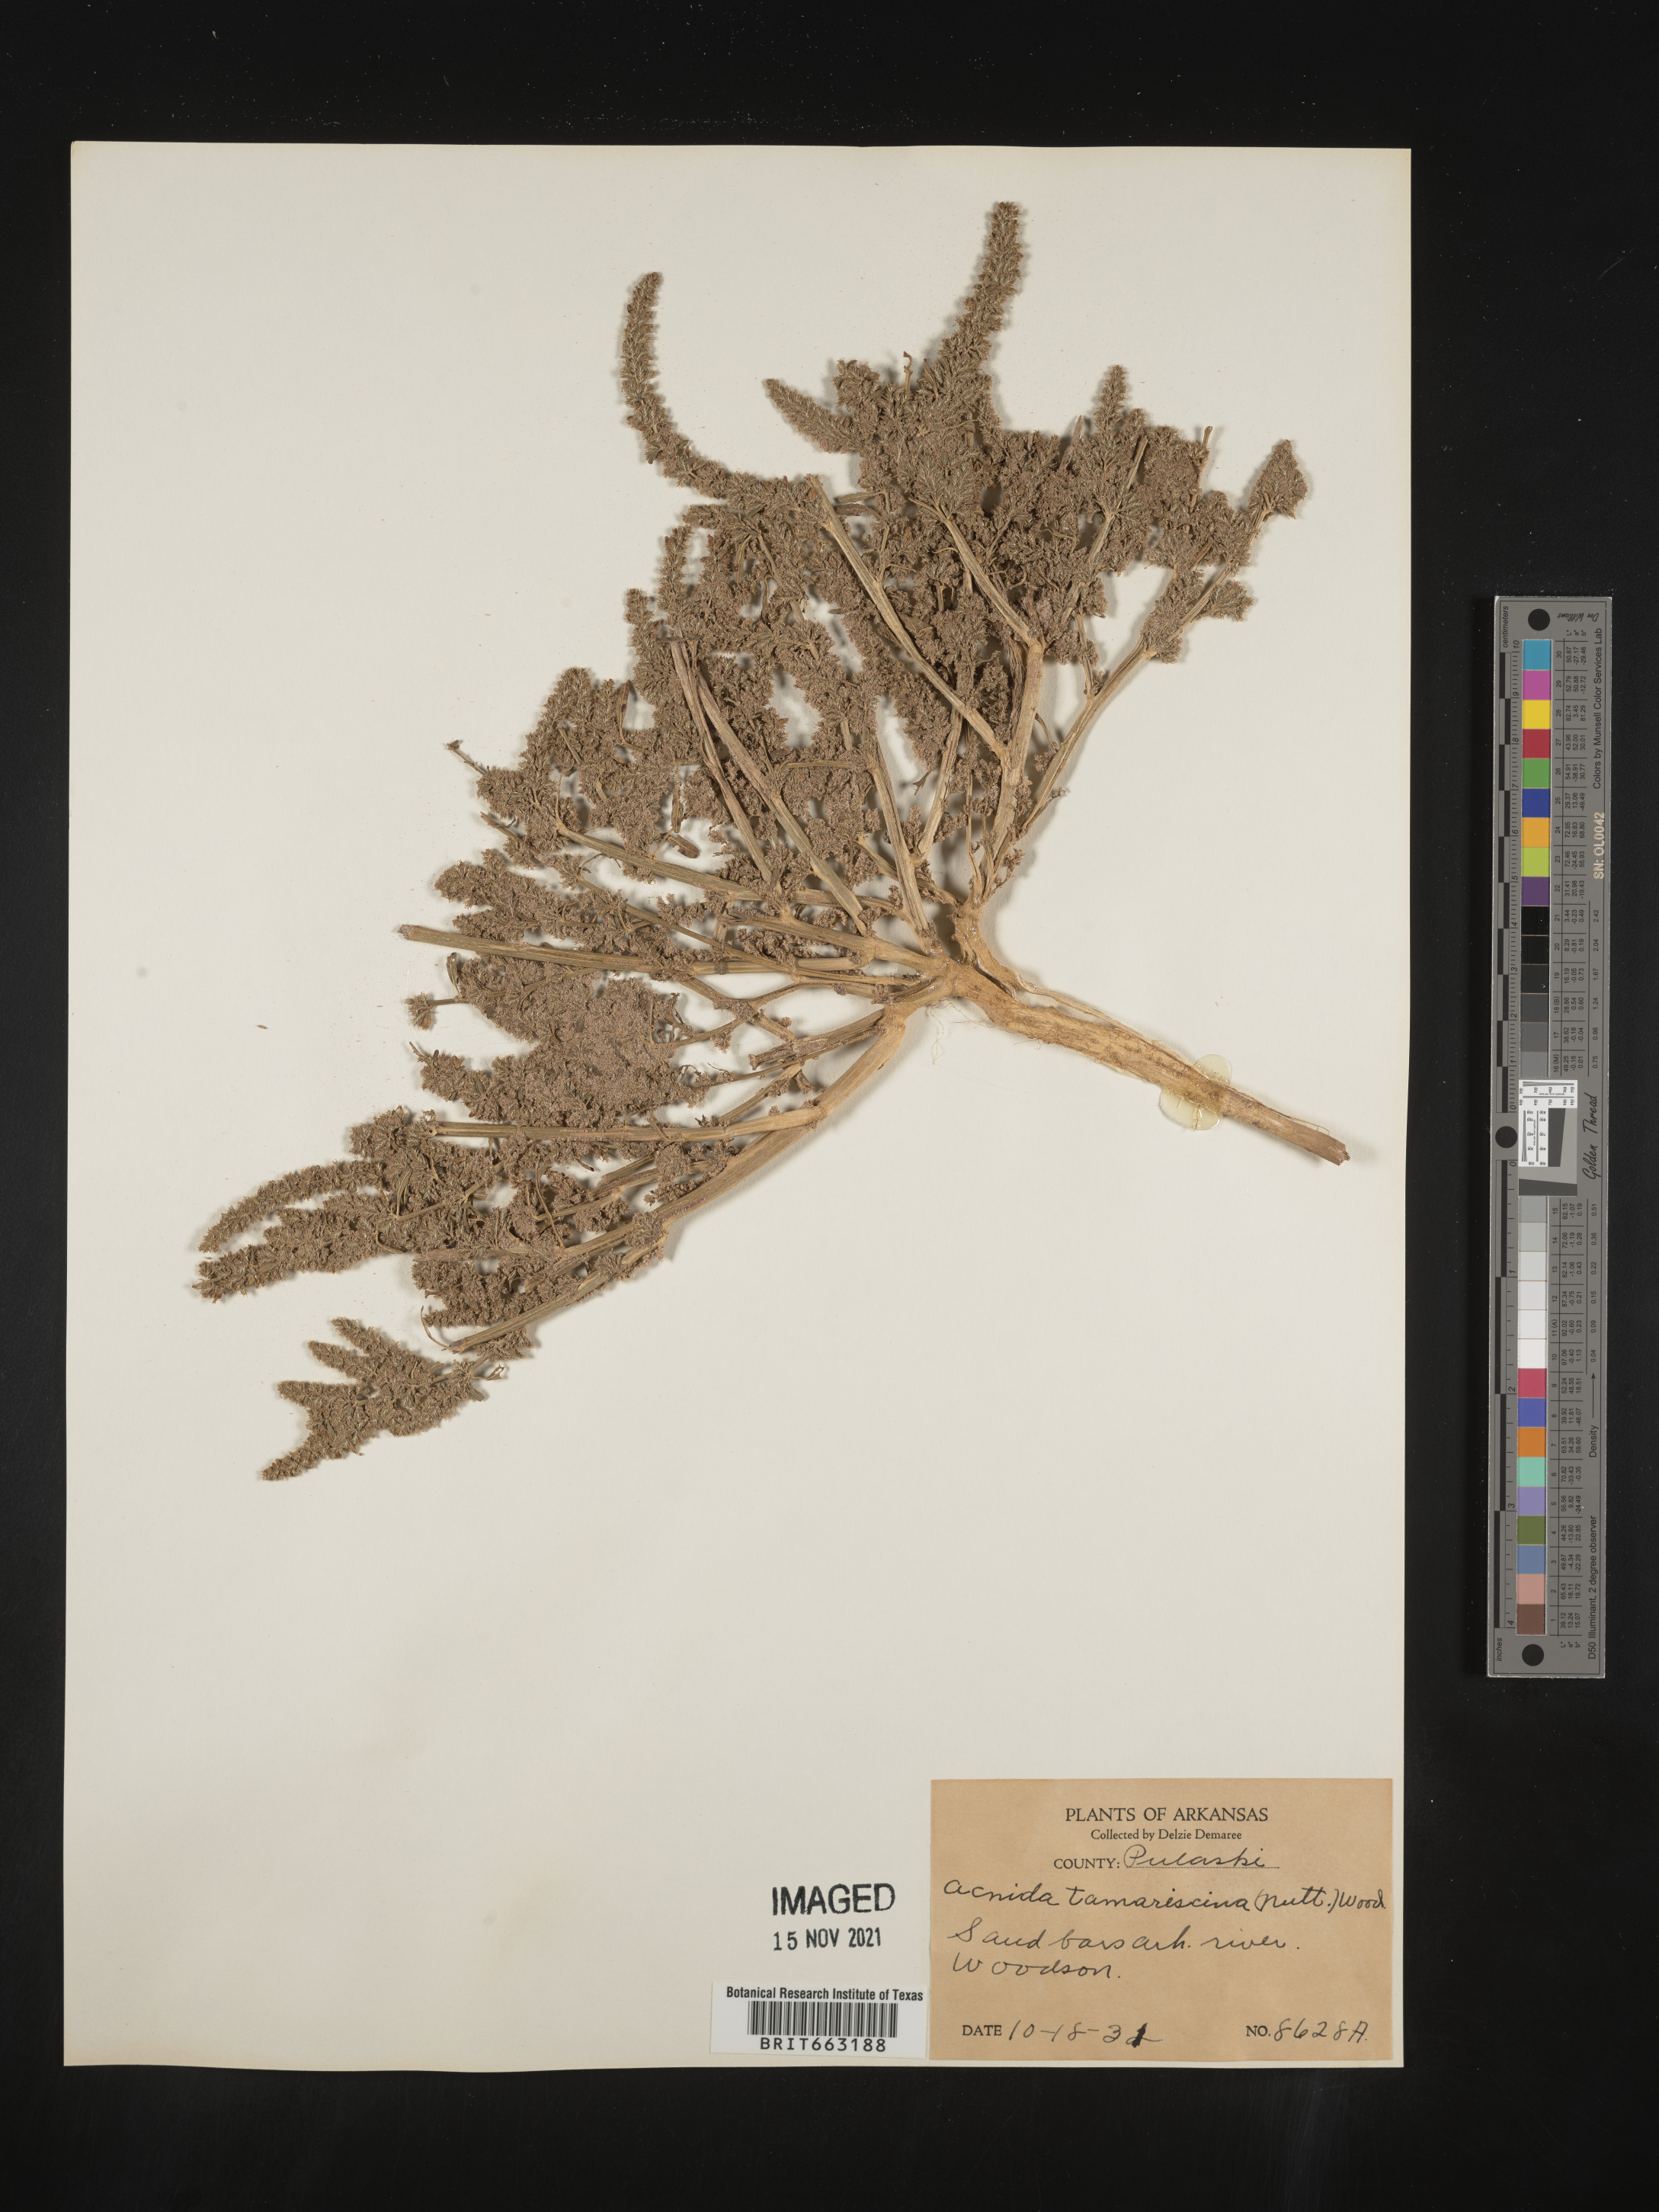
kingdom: Plantae
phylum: Tracheophyta
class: Magnoliopsida
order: Caryophyllales
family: Amaranthaceae
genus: Amaranthus
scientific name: Amaranthus tamariscinus
